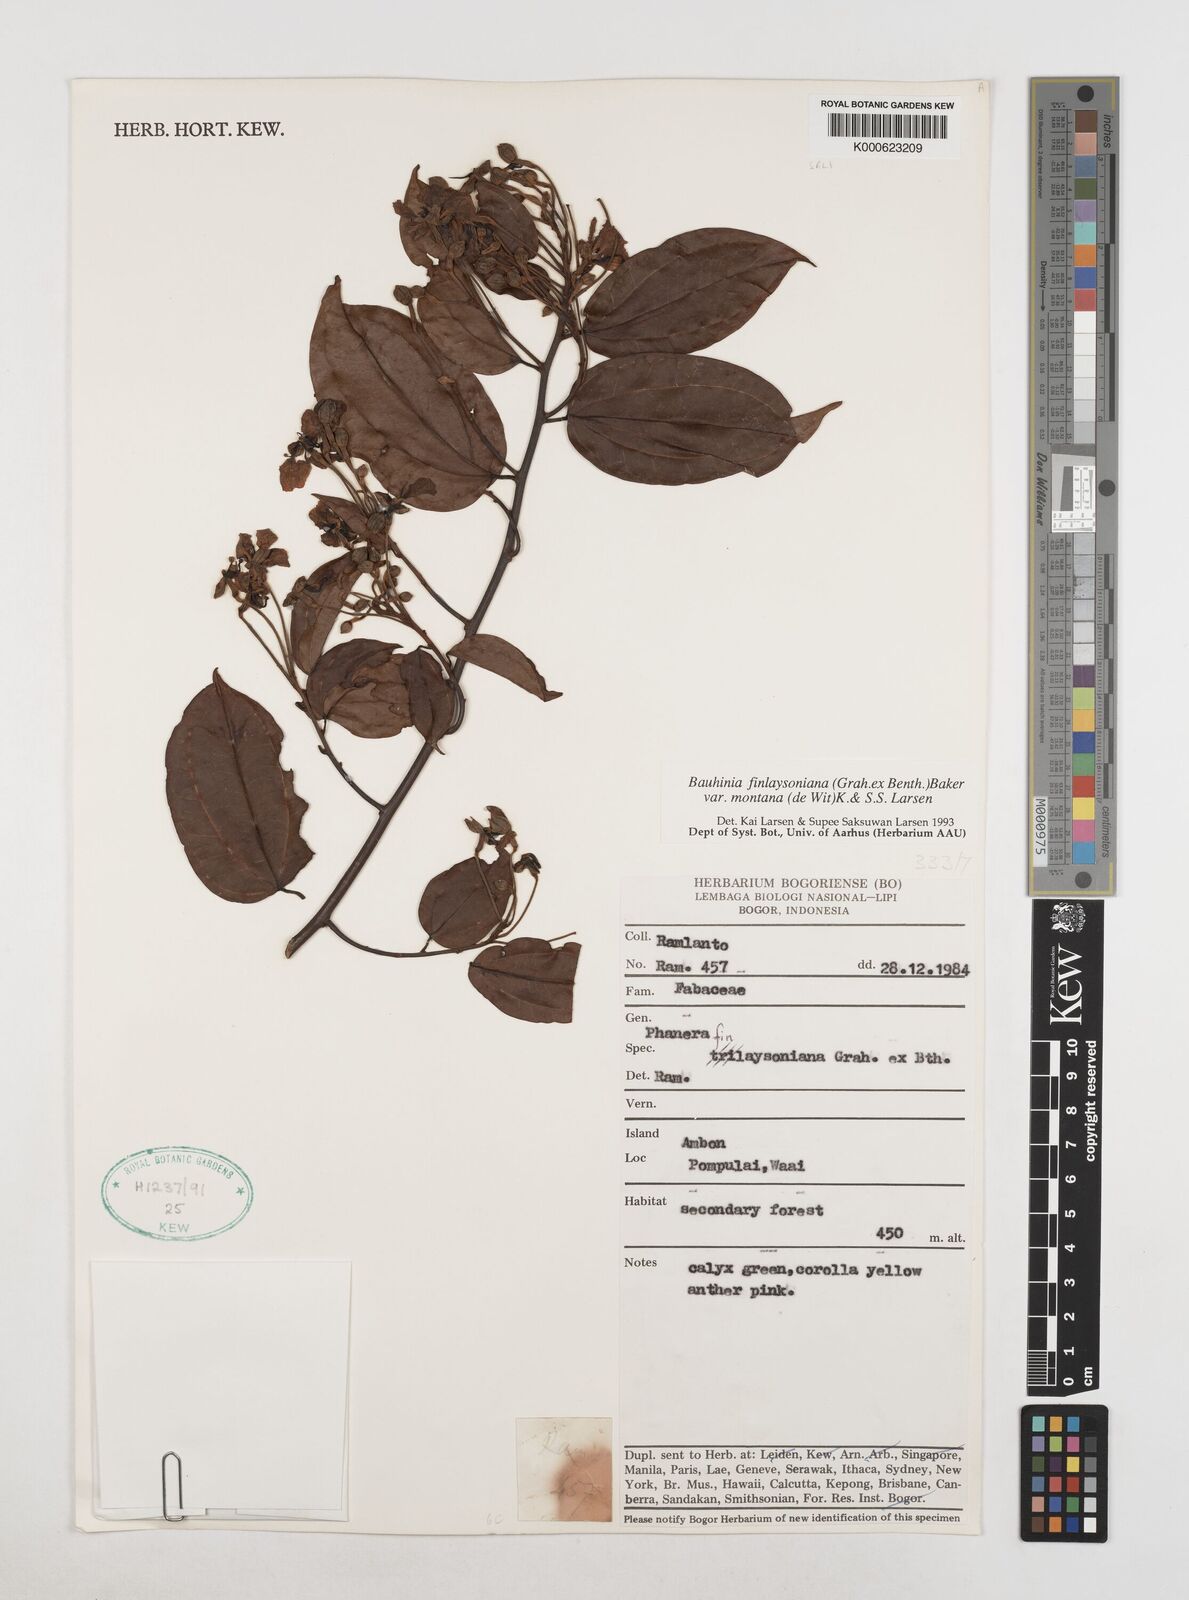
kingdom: Plantae
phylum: Tracheophyta
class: Magnoliopsida
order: Fabales
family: Fabaceae
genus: Phanera
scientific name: Phanera finlaysoniana
